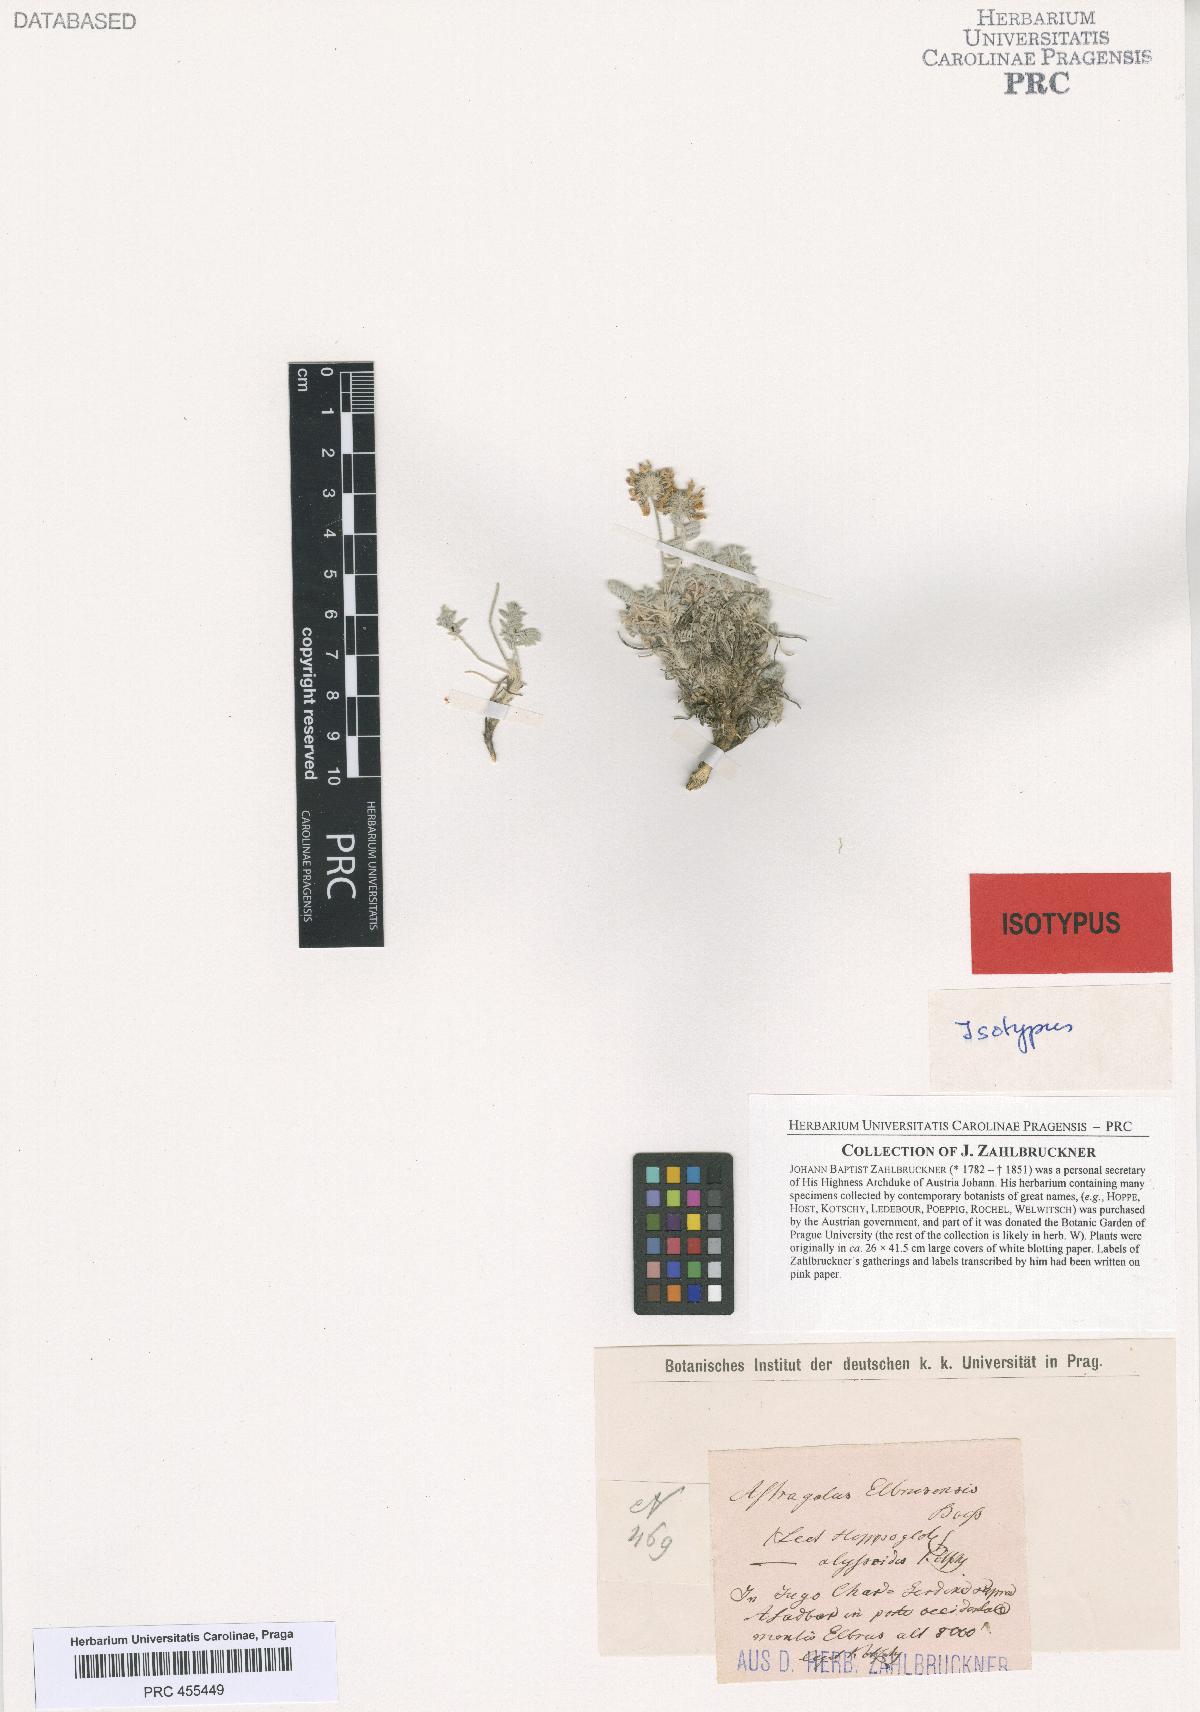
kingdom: Plantae
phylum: Tracheophyta
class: Magnoliopsida
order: Fabales
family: Fabaceae
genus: Astragalus
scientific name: Astragalus alyssoides
